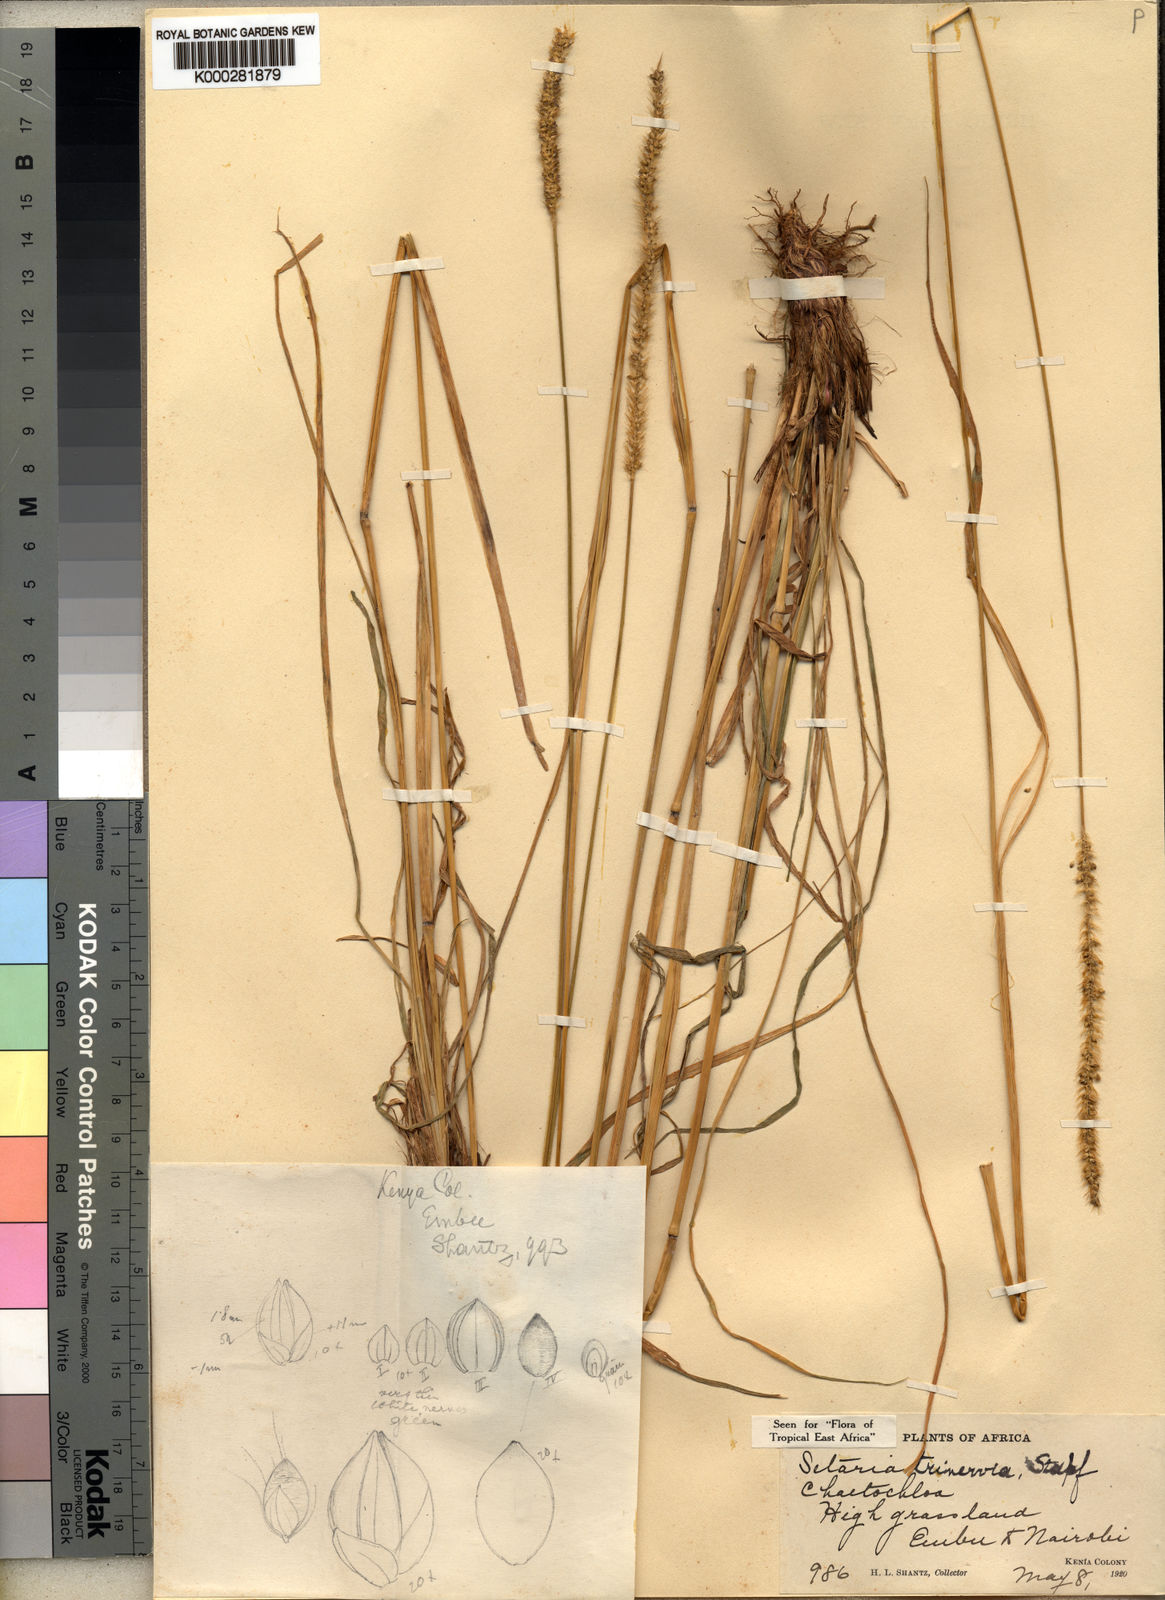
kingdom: Plantae
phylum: Tracheophyta
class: Liliopsida
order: Poales
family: Poaceae
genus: Setaria
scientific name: Setaria sphacelata
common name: African bristlegrass
